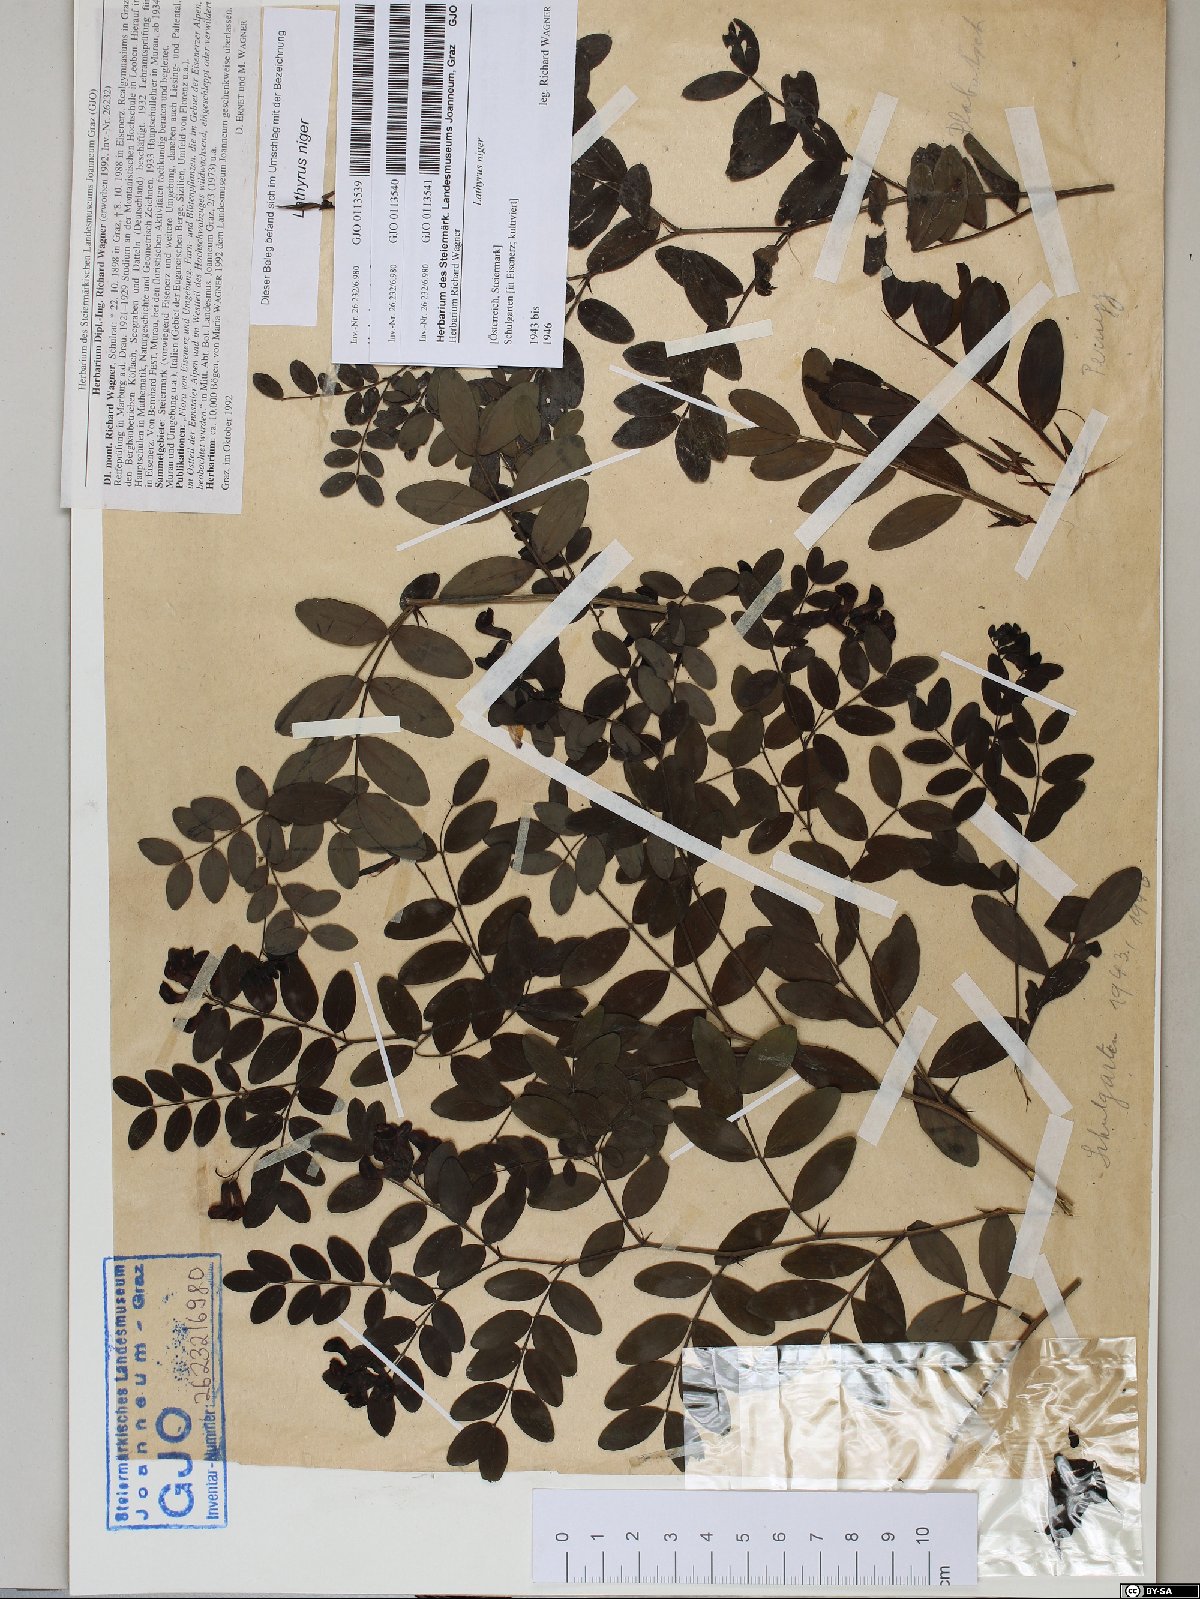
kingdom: Plantae
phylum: Tracheophyta
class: Magnoliopsida
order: Fabales
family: Fabaceae
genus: Lathyrus
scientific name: Lathyrus niger
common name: Black pea
